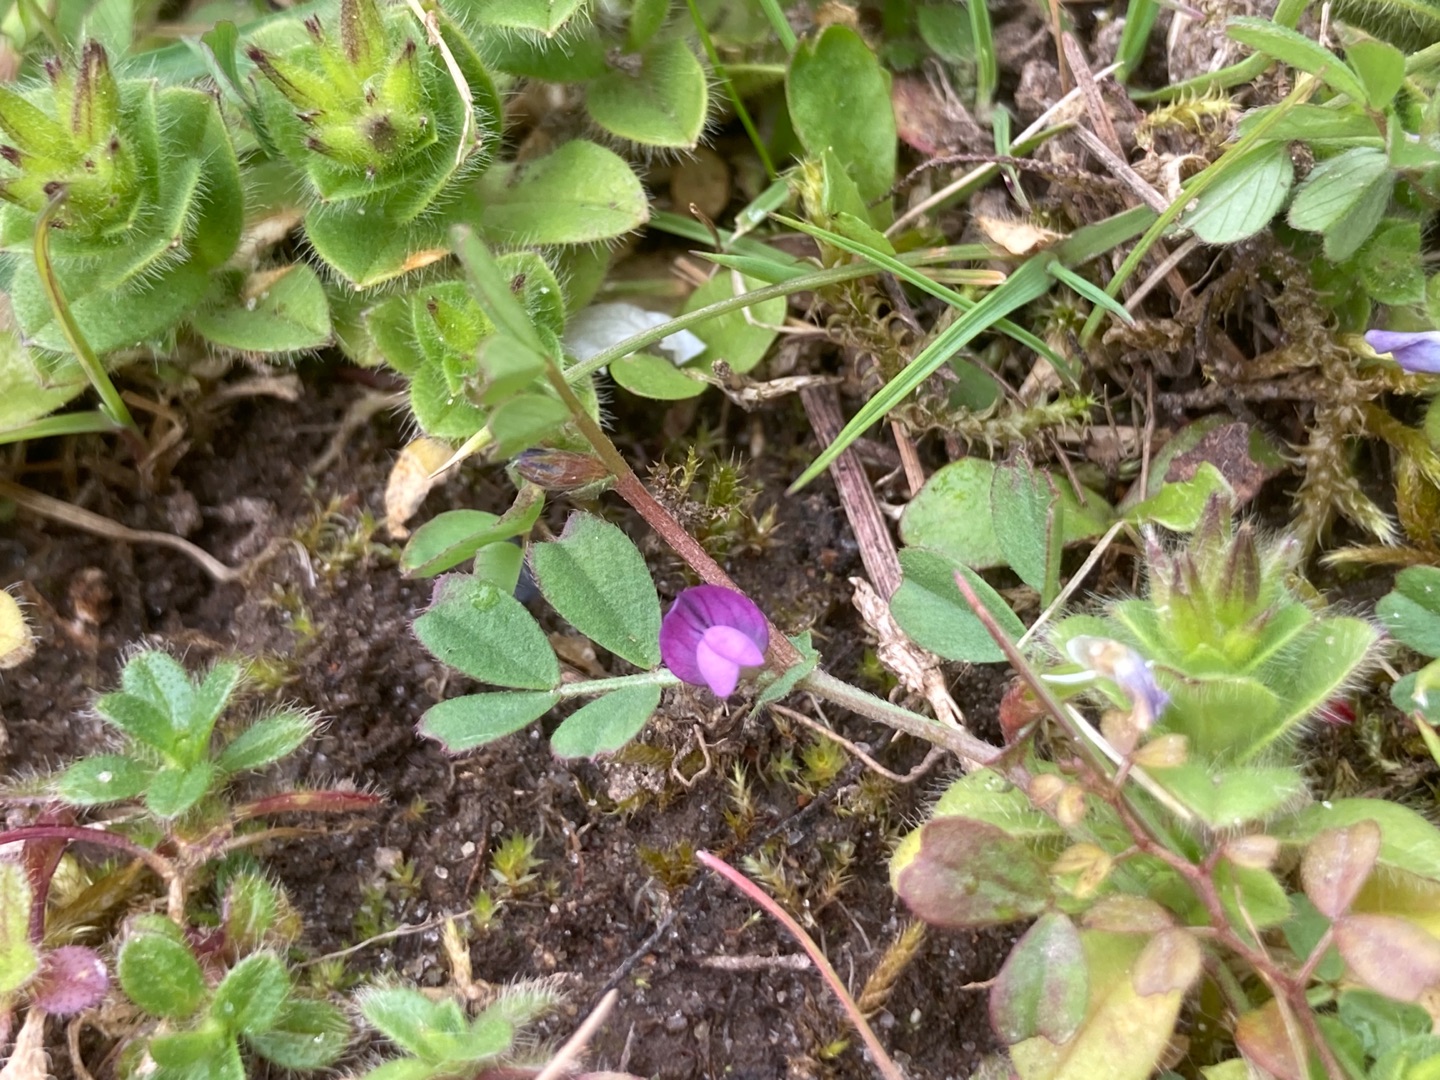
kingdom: Plantae
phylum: Tracheophyta
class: Magnoliopsida
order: Fabales
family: Fabaceae
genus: Vicia
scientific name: Vicia lathyroides
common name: Vår-vikke
